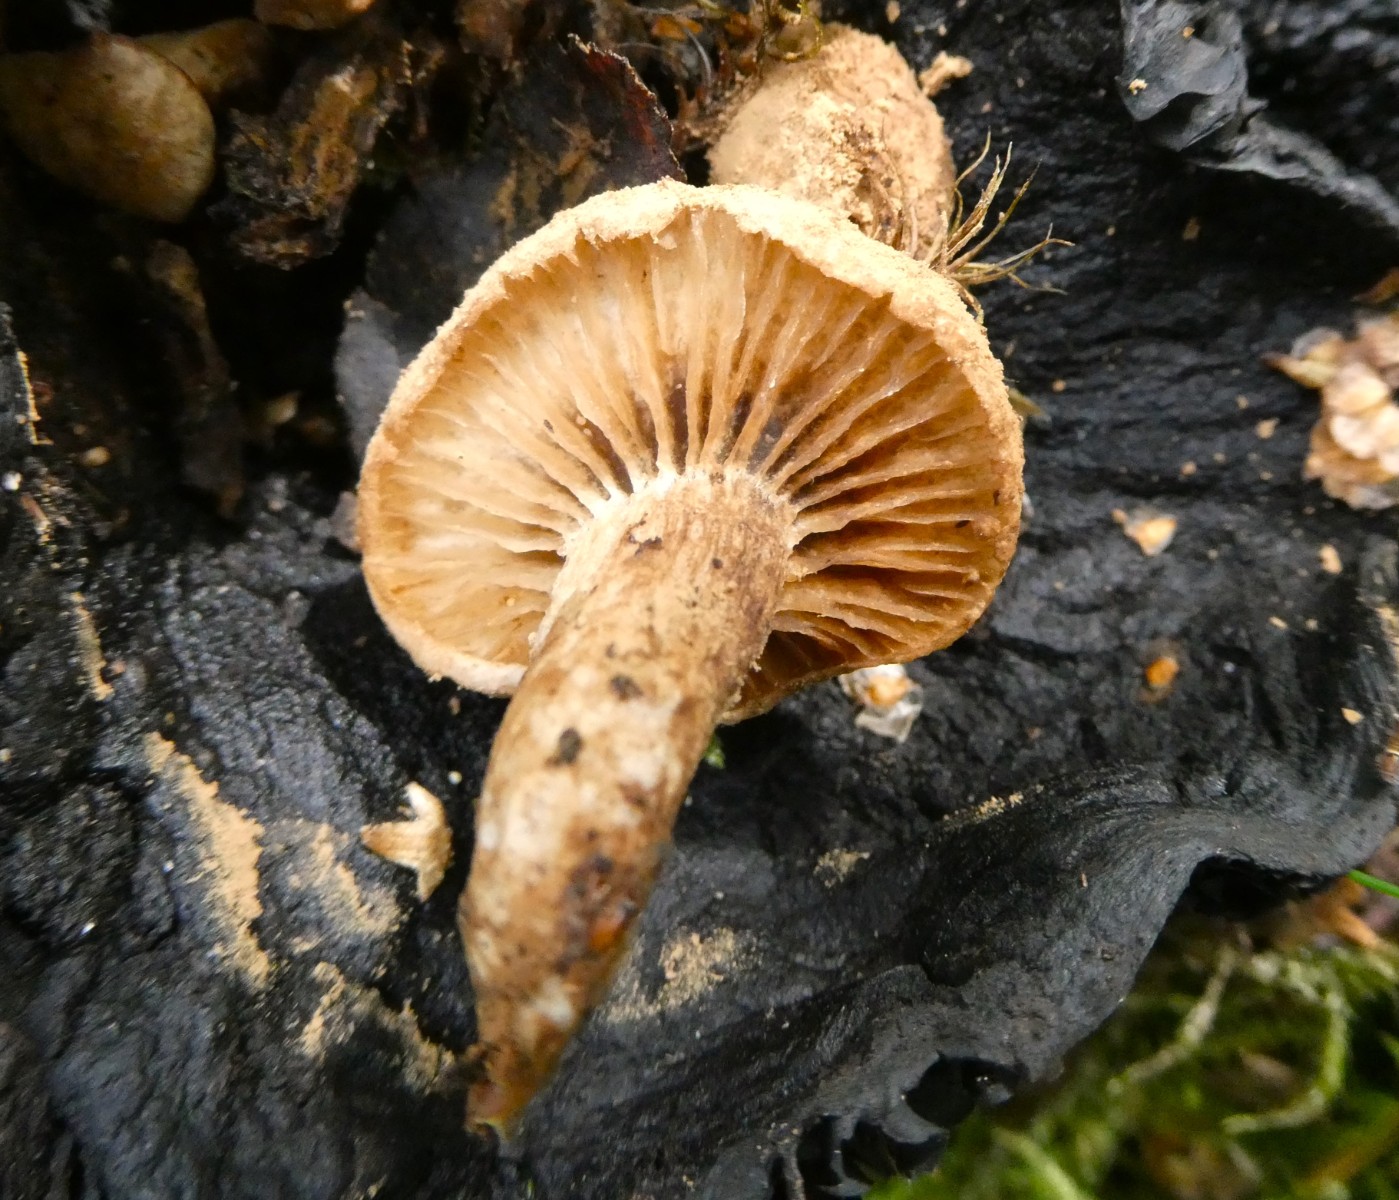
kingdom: Fungi
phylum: Basidiomycota
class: Agaricomycetes
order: Agaricales
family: Lyophyllaceae
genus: Asterophora
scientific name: Asterophora lycoperdoides
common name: brunpudret snyltehat
